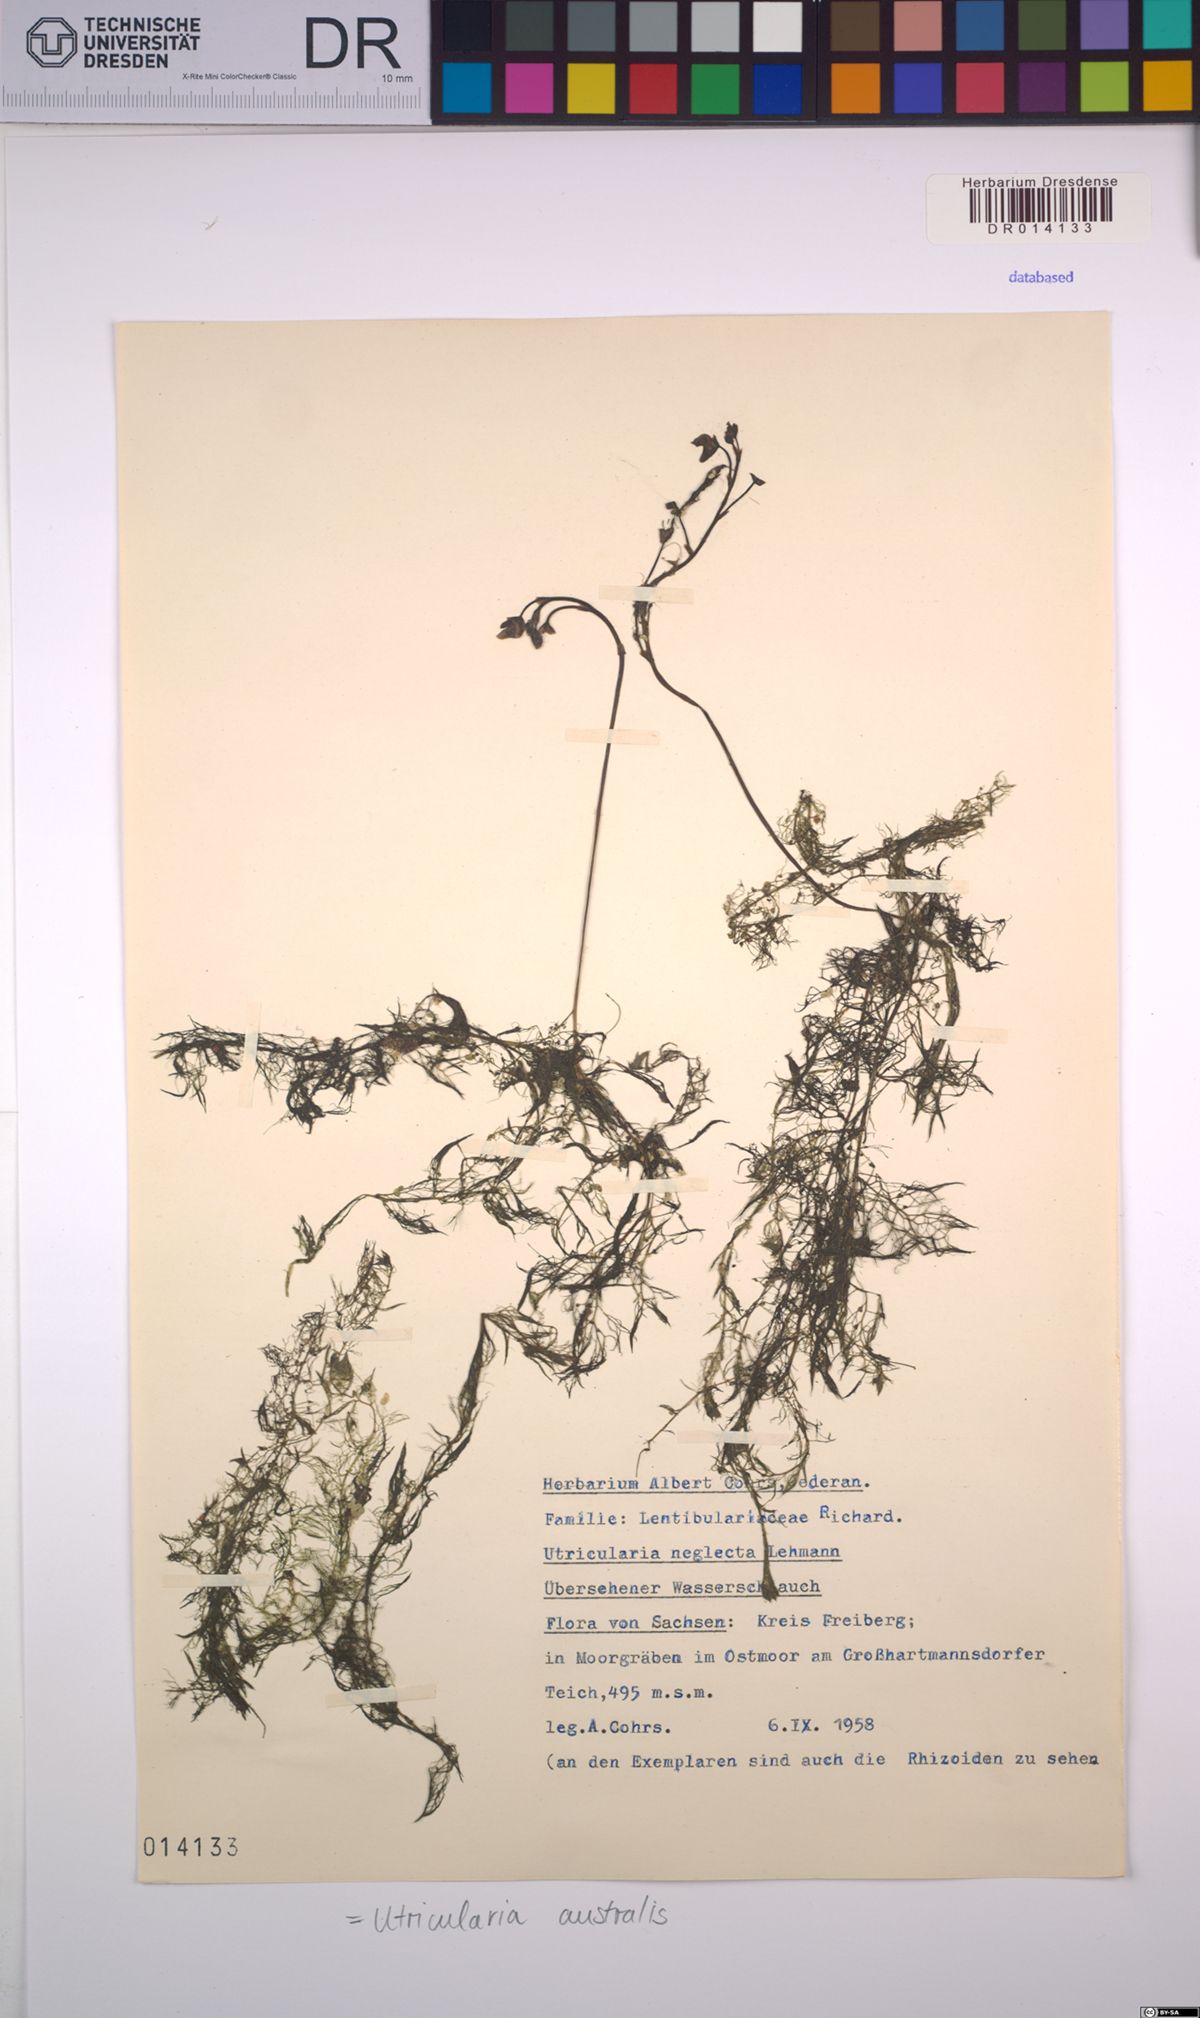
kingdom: Plantae
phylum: Tracheophyta
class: Magnoliopsida
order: Lamiales
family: Lentibulariaceae
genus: Utricularia
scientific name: Utricularia australis
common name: Bladderwort
